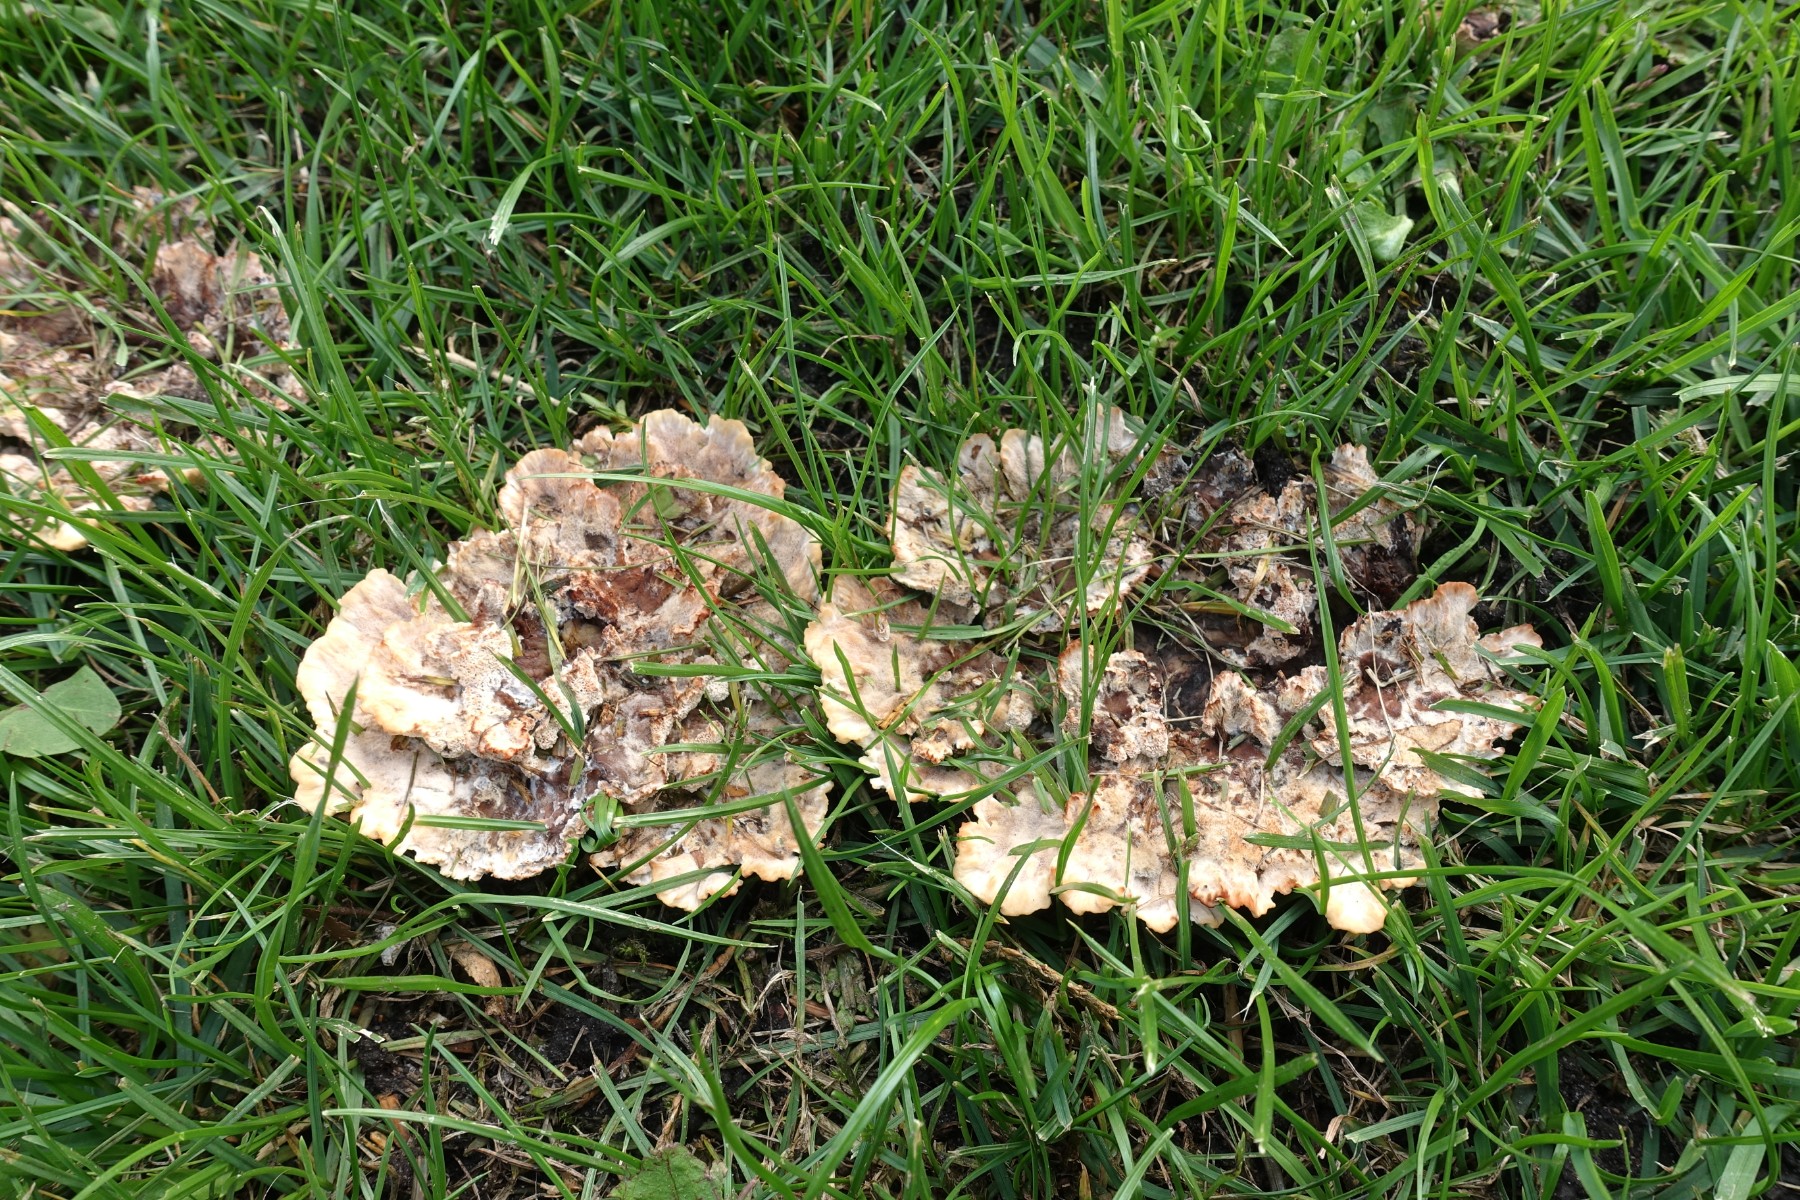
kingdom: Fungi
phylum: Basidiomycota
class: Agaricomycetes
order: Polyporales
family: Podoscyphaceae
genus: Abortiporus
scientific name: Abortiporus biennis
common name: rødmende pjalteporesvamp
